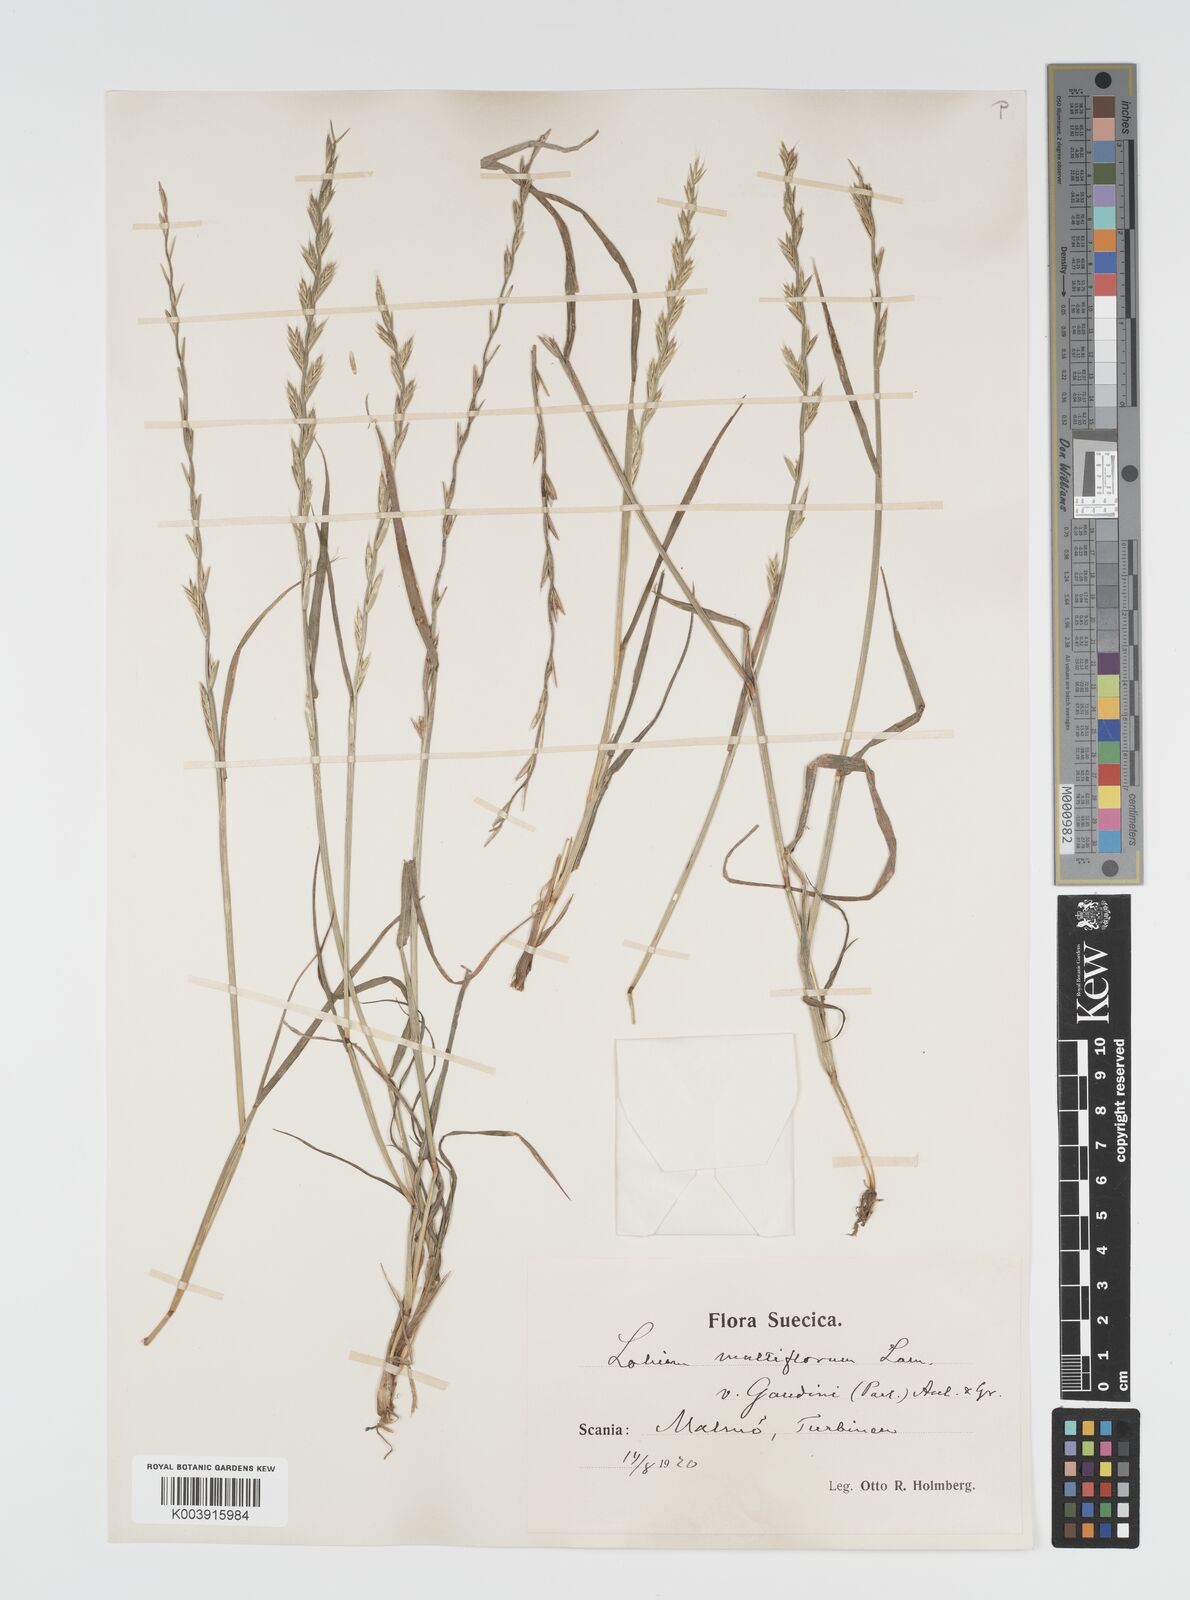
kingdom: Plantae
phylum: Tracheophyta
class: Liliopsida
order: Poales
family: Poaceae
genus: Lolium
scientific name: Lolium multiflorum
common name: Annual ryegrass
